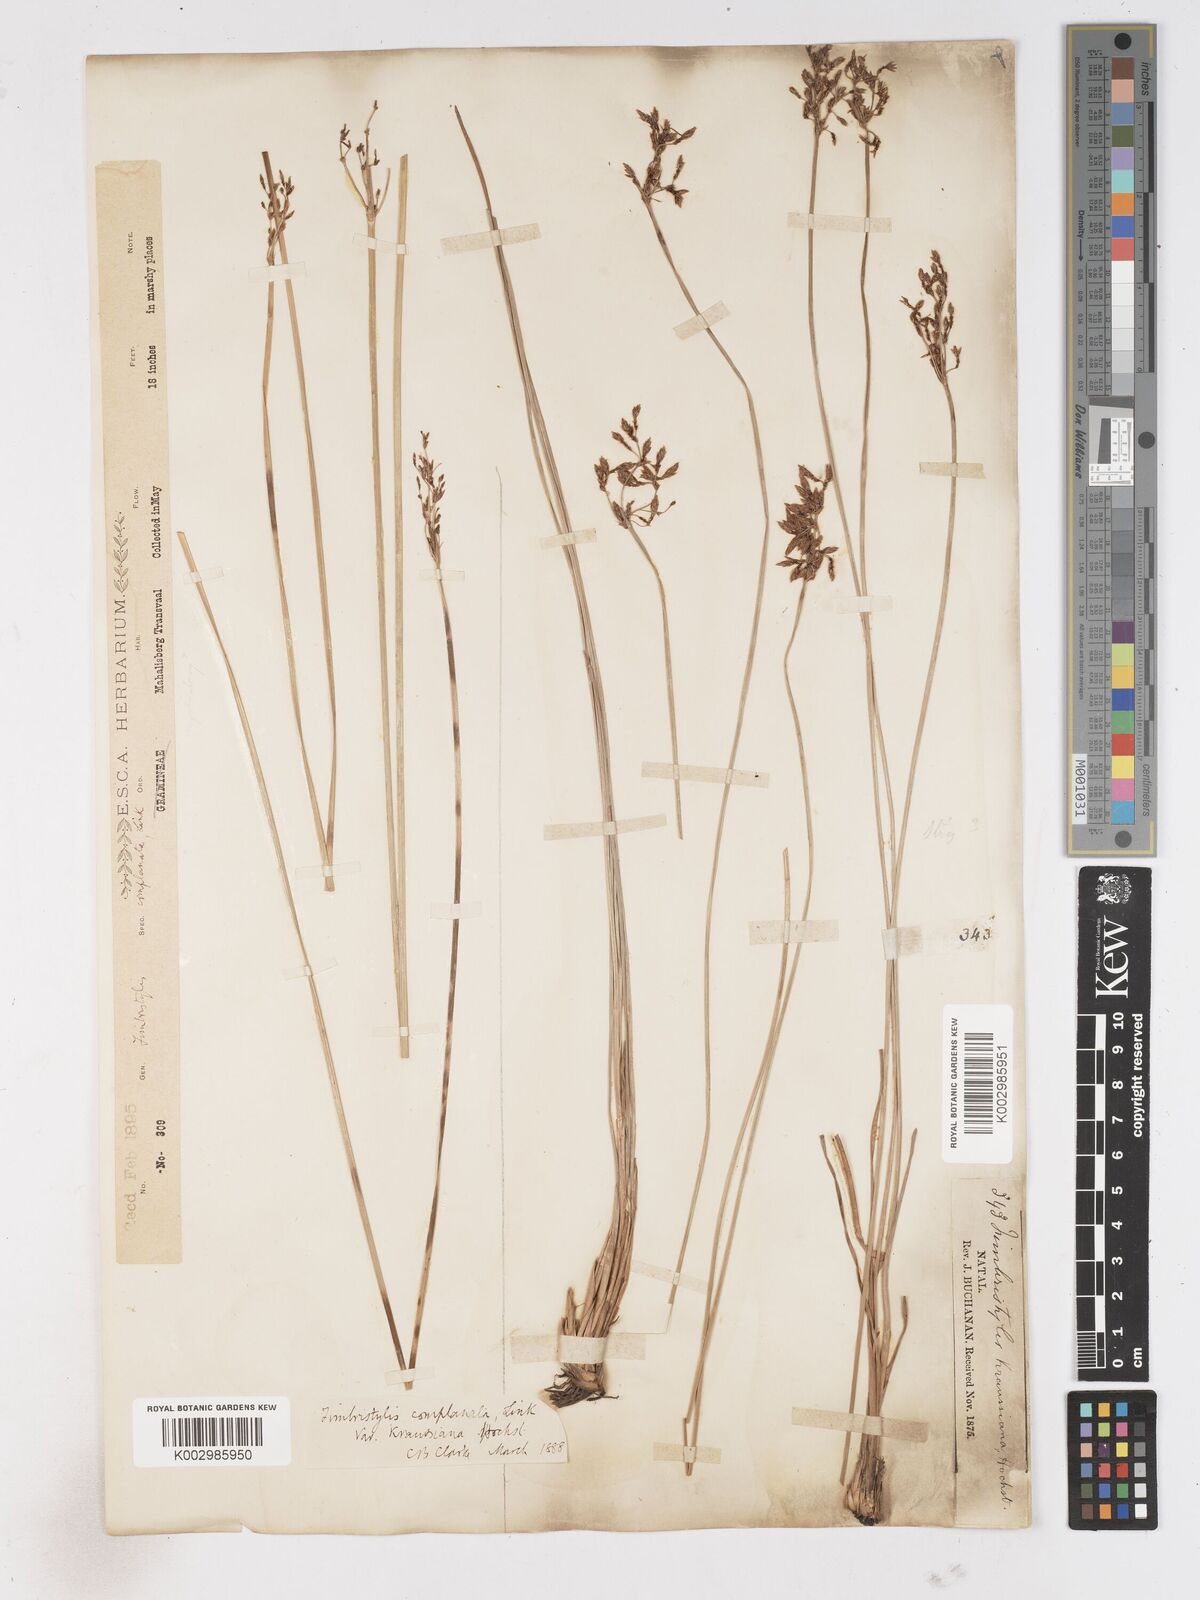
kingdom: Plantae
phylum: Tracheophyta
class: Liliopsida
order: Poales
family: Cyperaceae
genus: Fimbristylis
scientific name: Fimbristylis complanata
